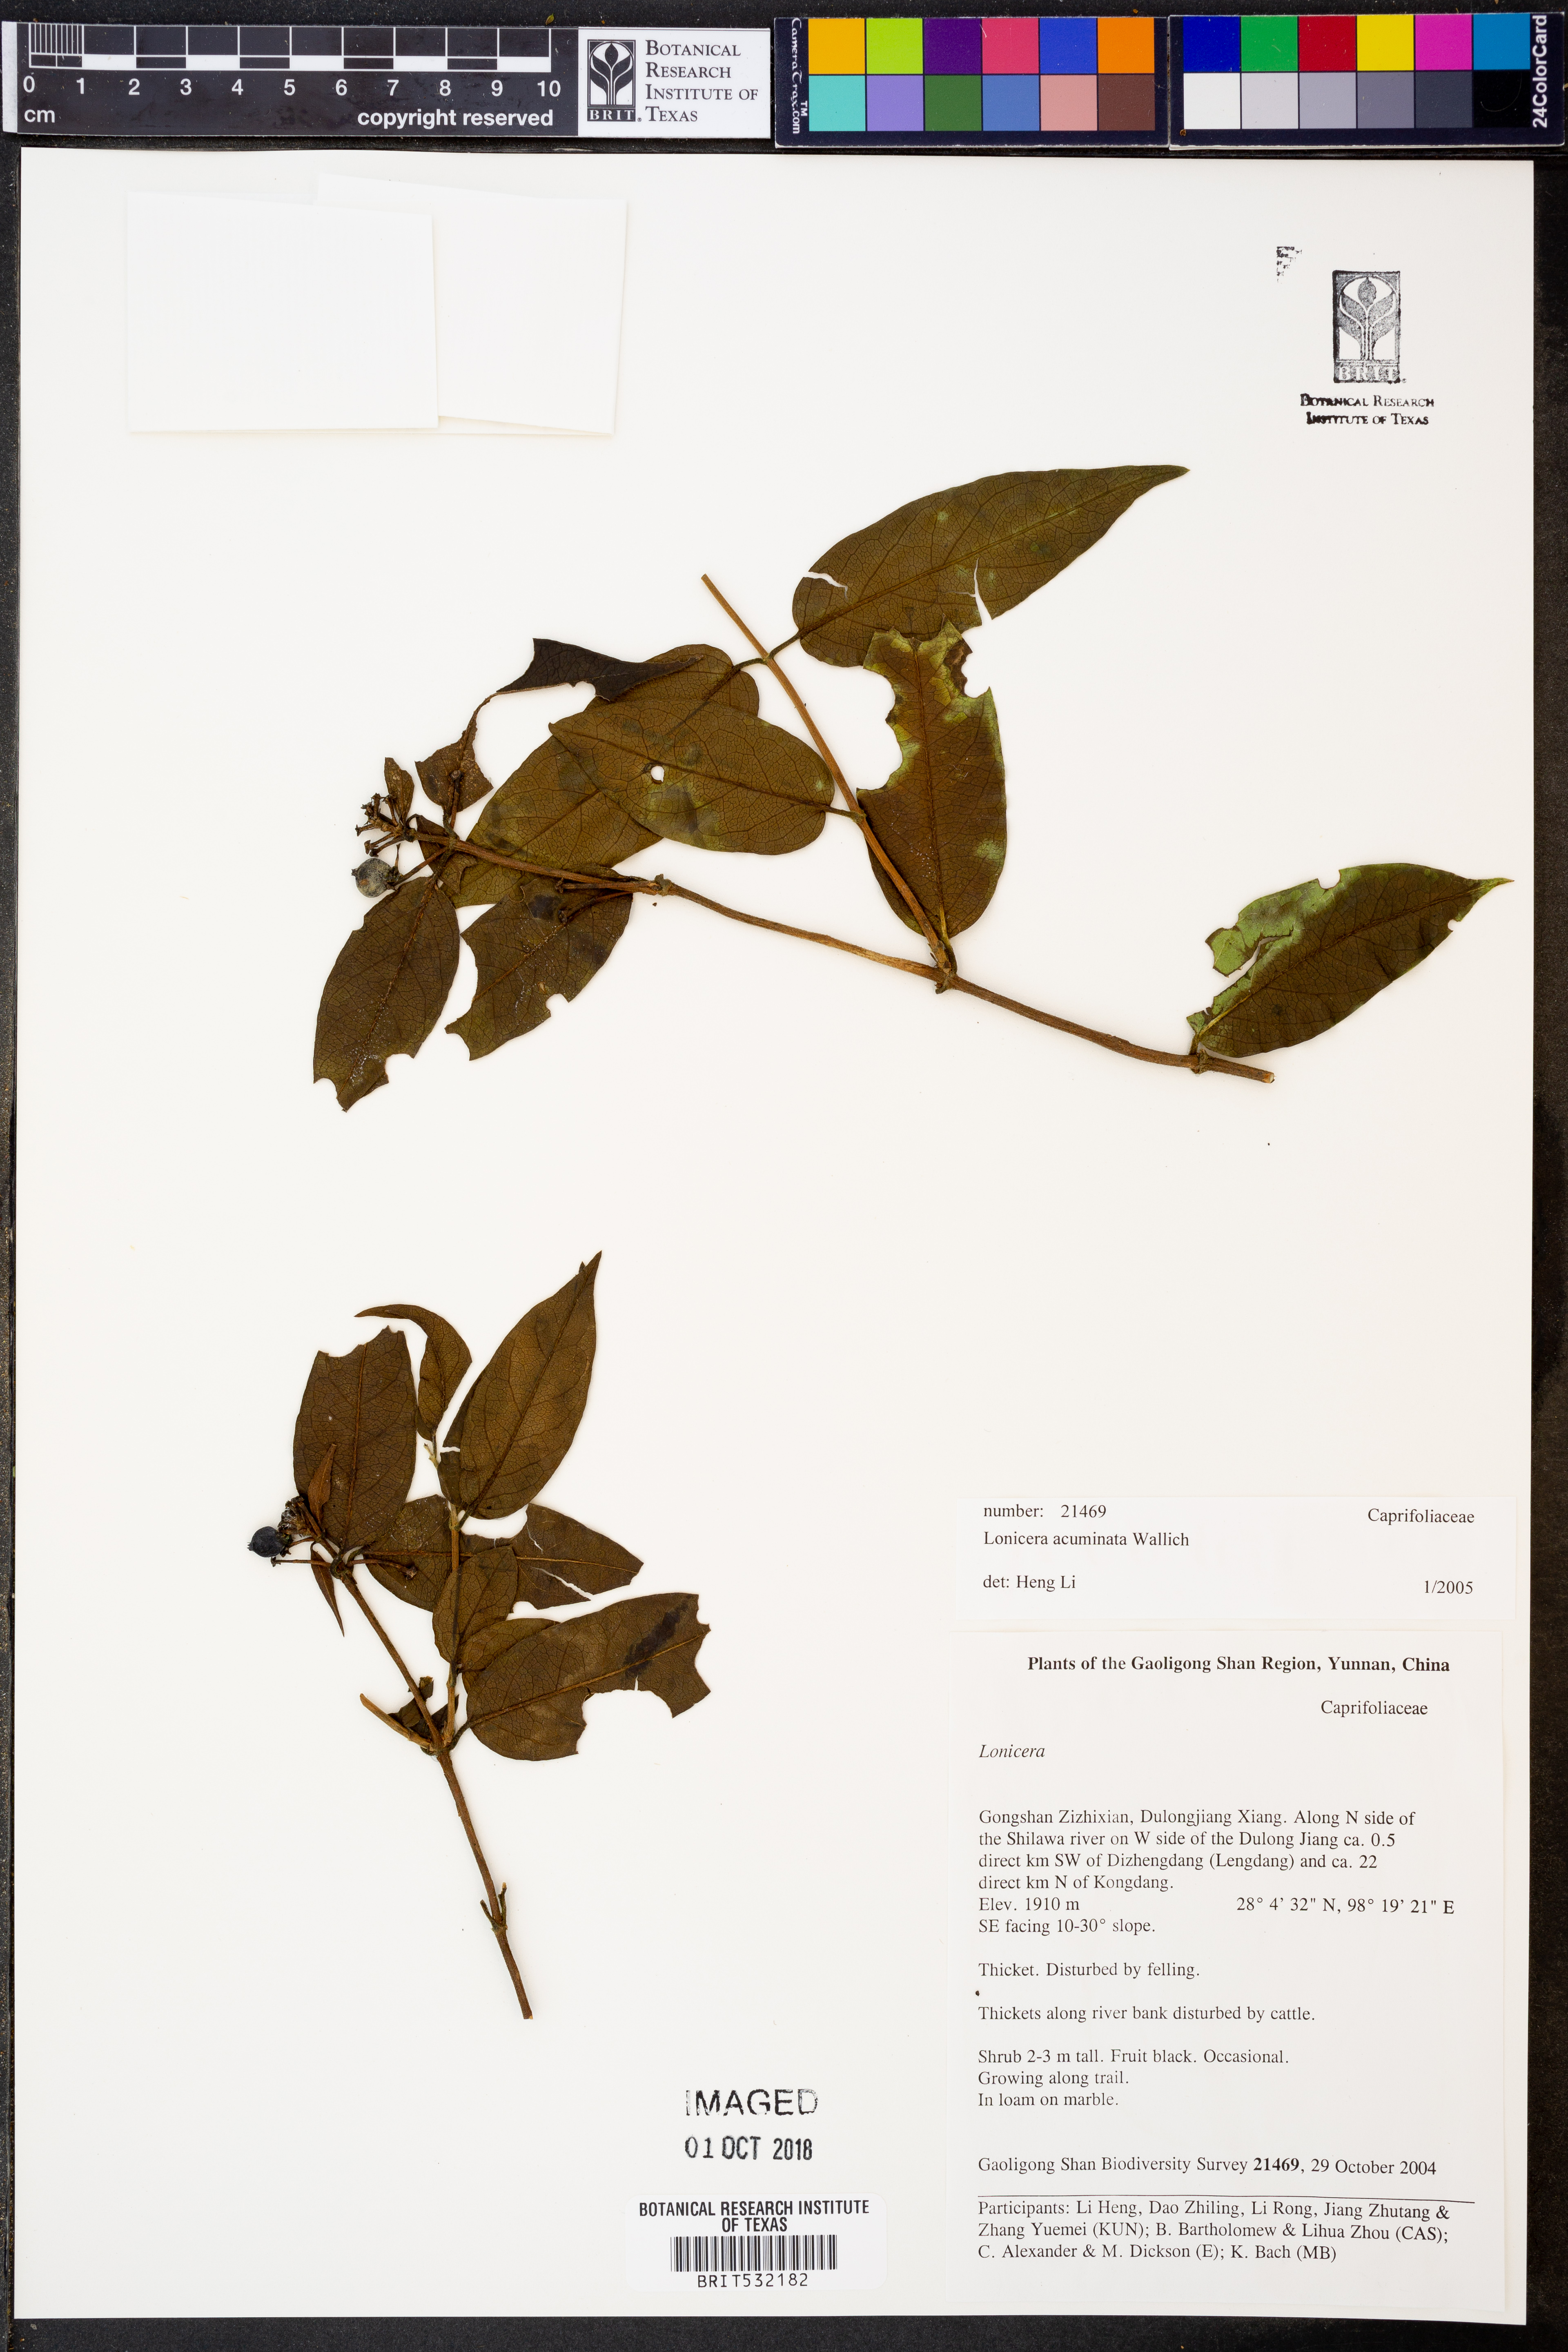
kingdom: Plantae
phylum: Tracheophyta
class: Magnoliopsida
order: Dipsacales
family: Caprifoliaceae
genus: Lonicera
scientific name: Lonicera acuminata
